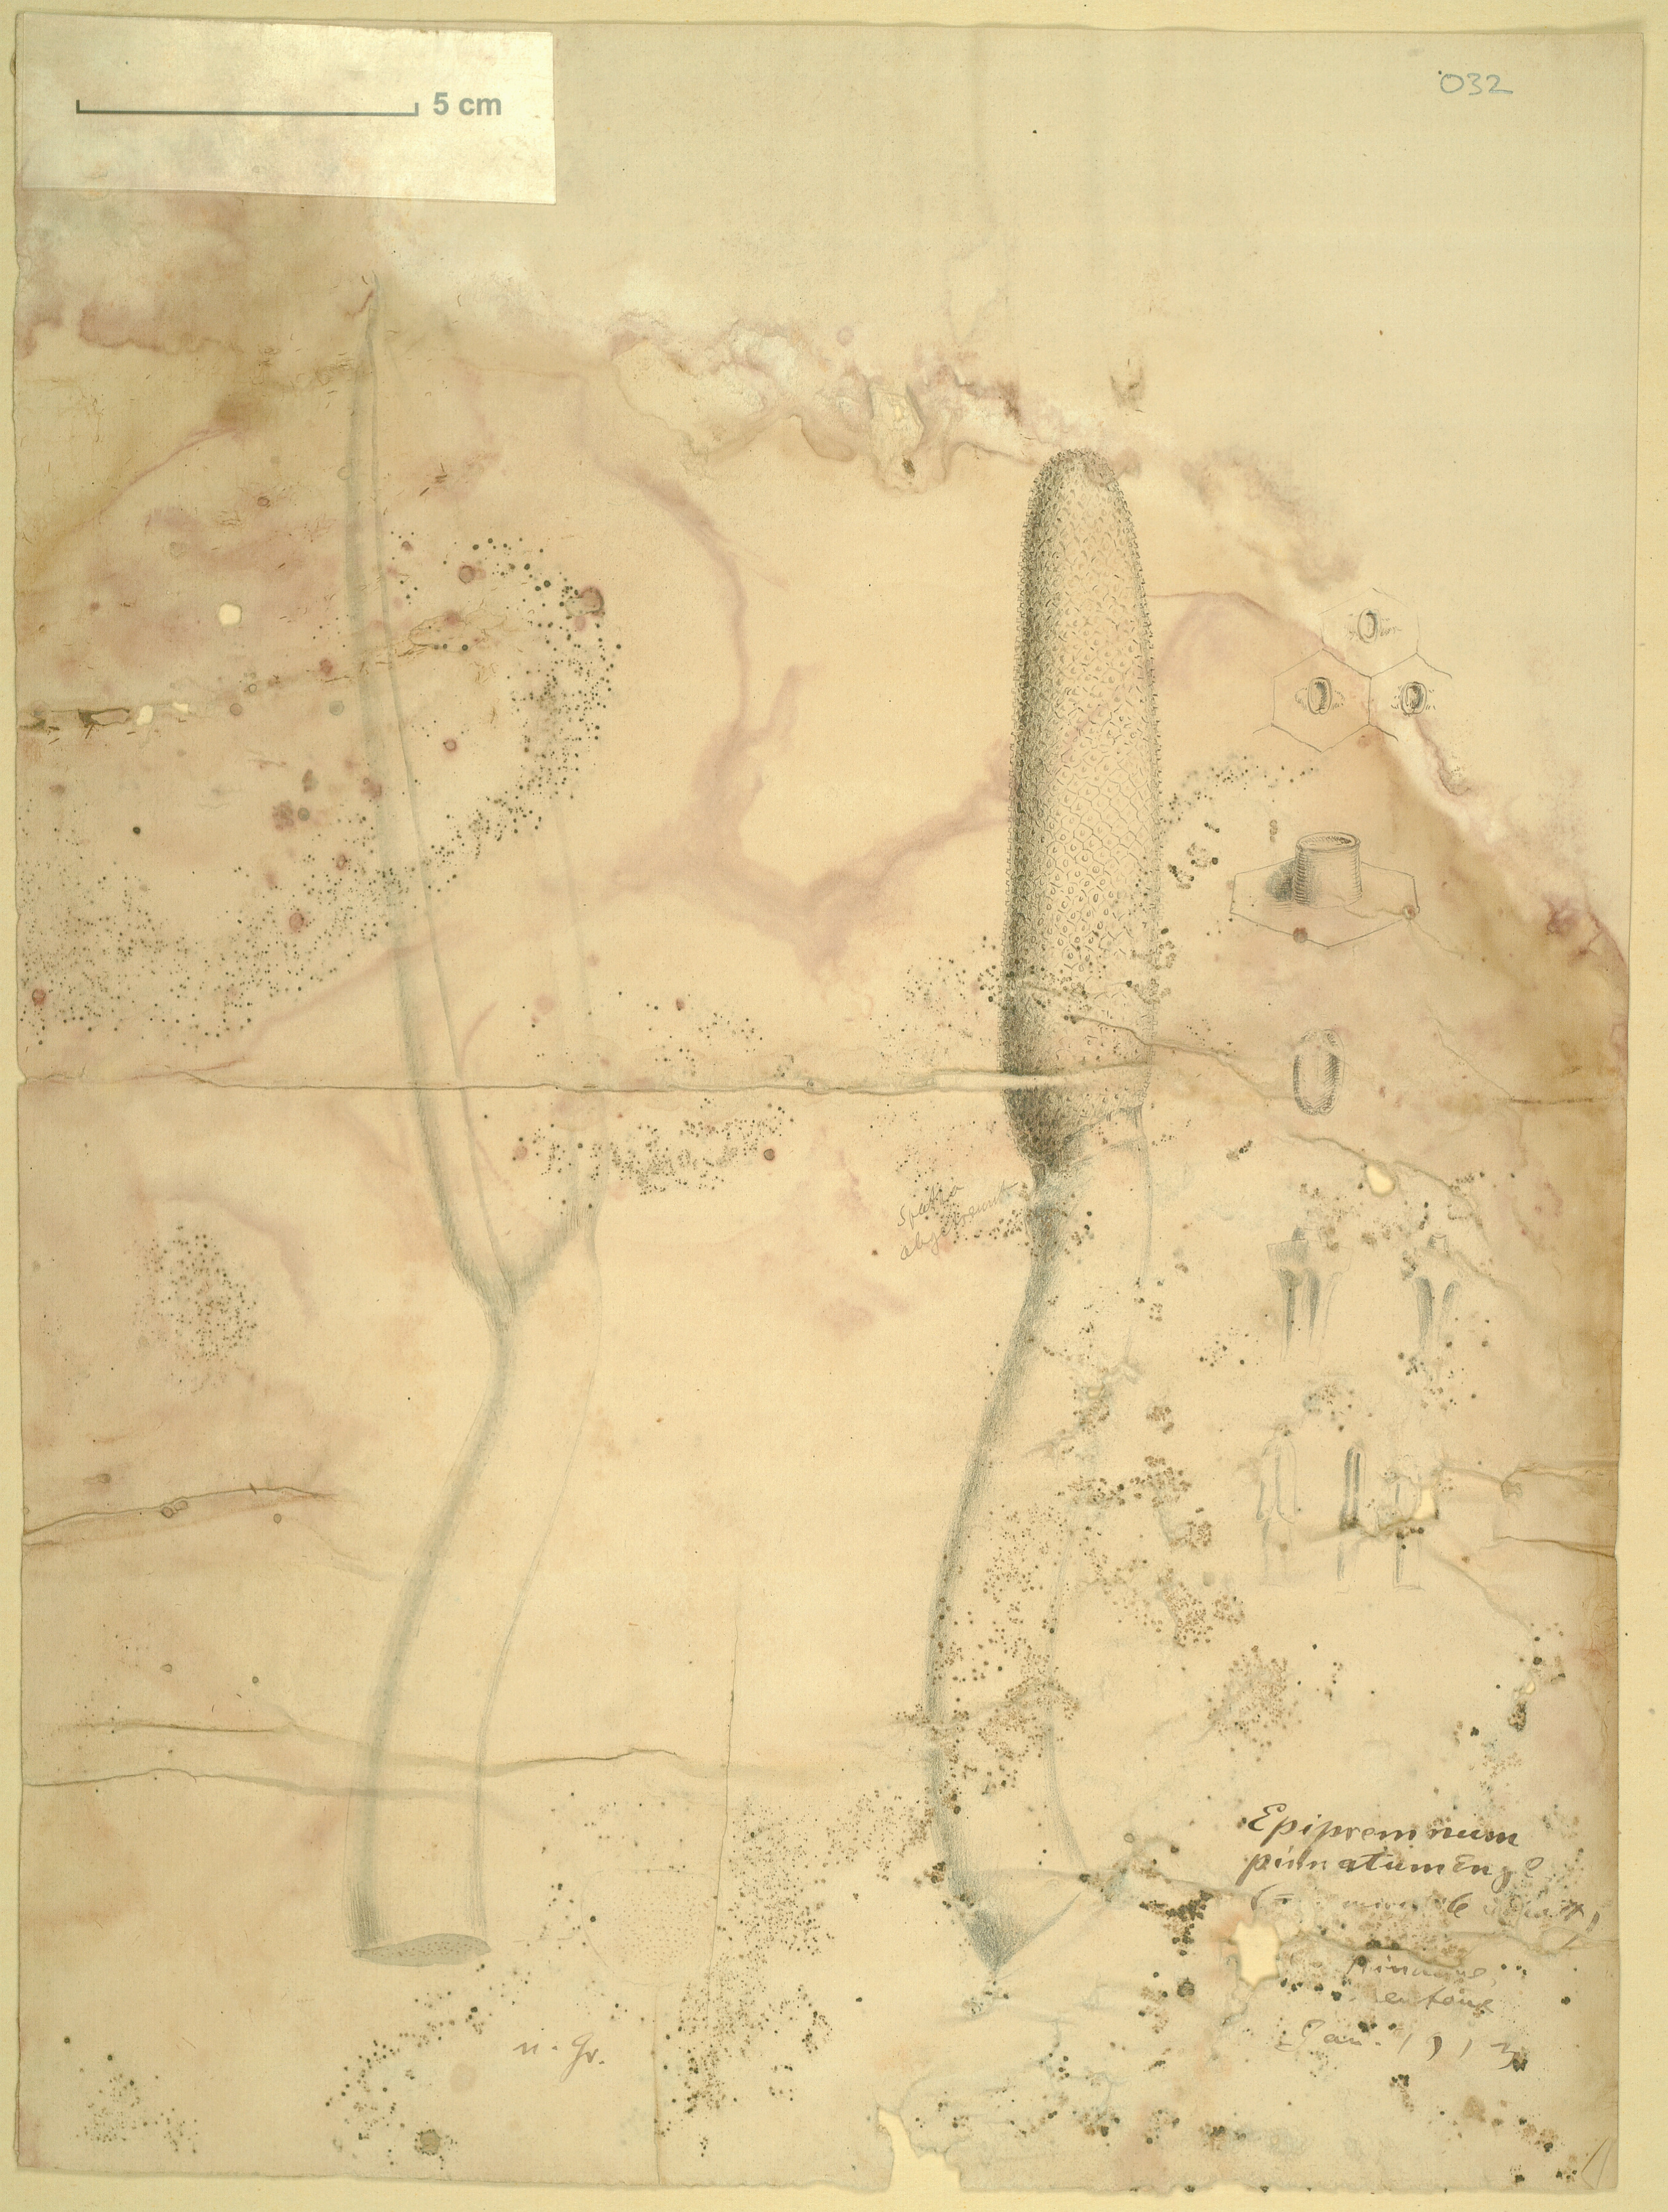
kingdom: Plantae
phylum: Tracheophyta
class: Liliopsida
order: Alismatales
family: Araceae
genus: Epipremnum
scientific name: Epipremnum pinnatum
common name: Centipede tongavine
